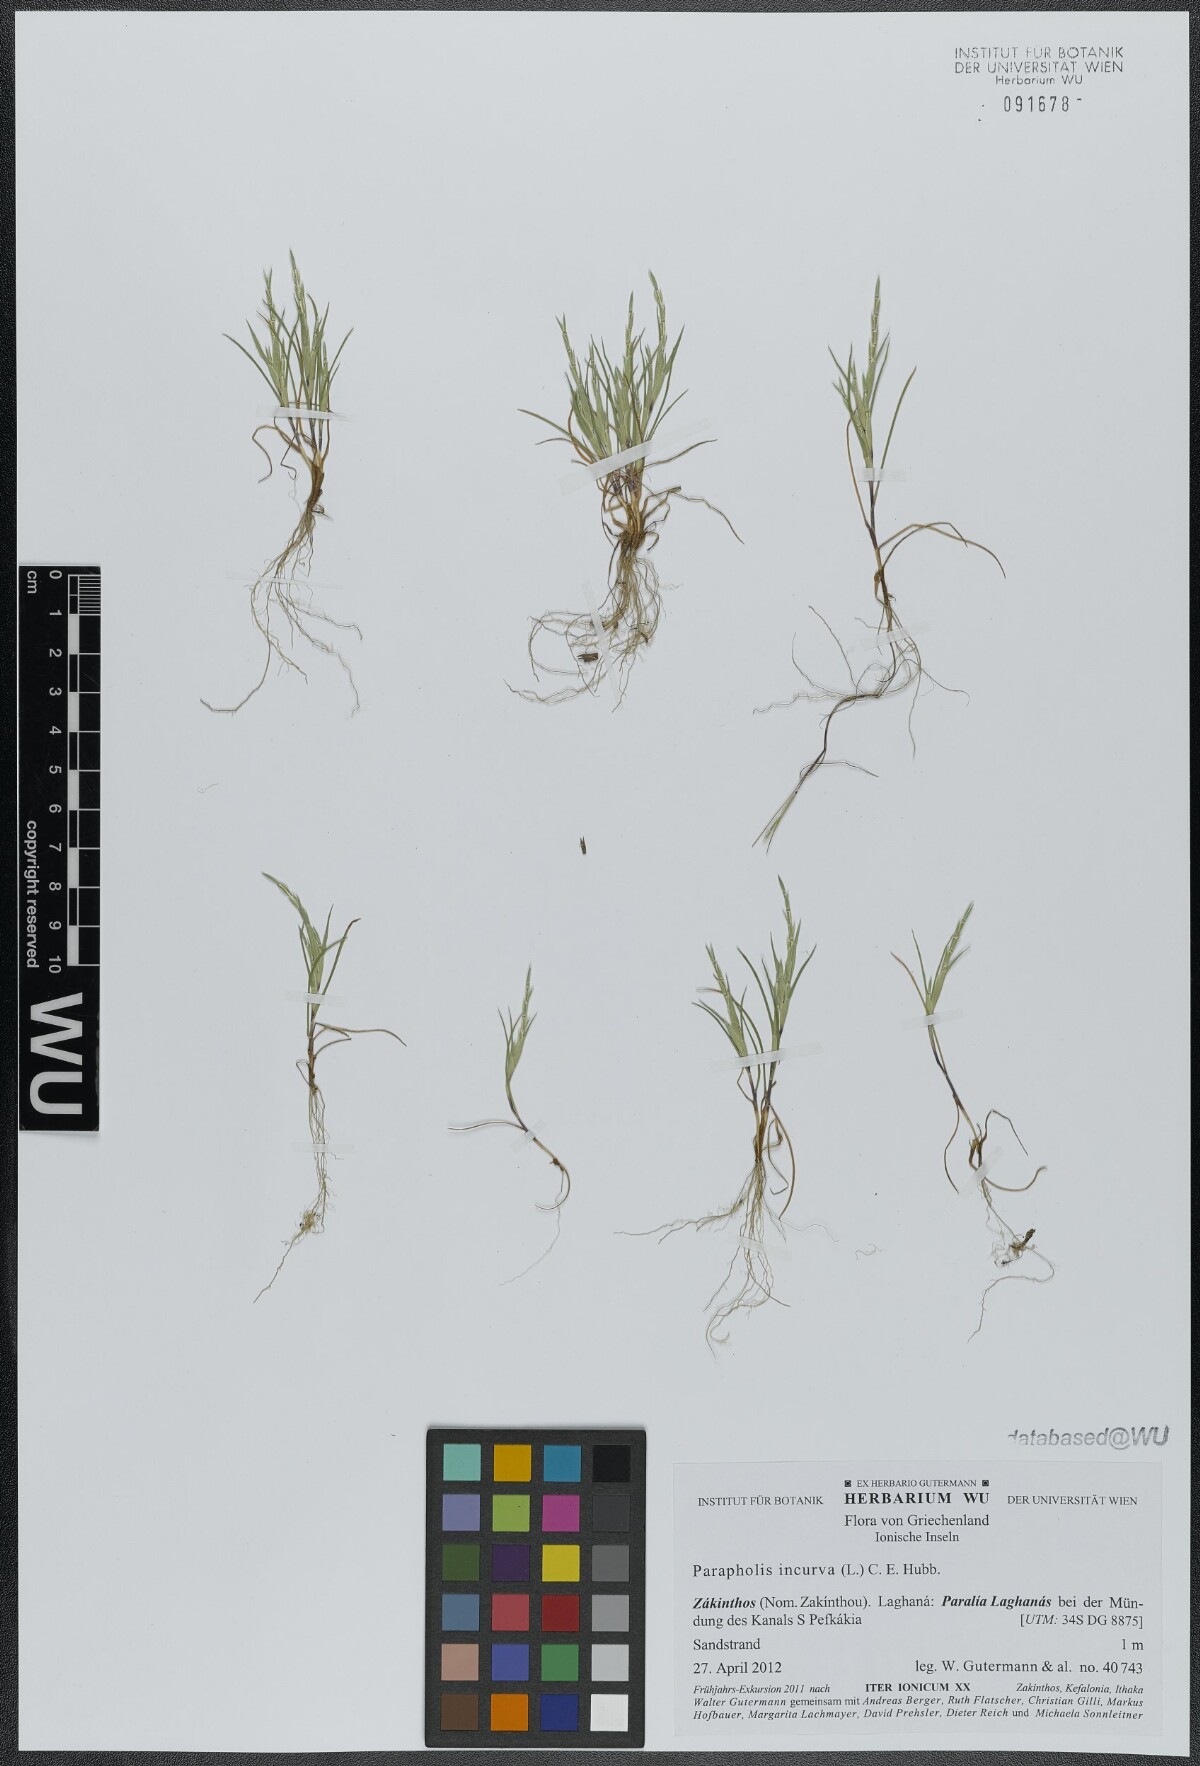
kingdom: Plantae
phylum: Tracheophyta
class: Liliopsida
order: Poales
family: Poaceae
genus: Parapholis
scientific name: Parapholis incurva
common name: Curved sicklegrass
